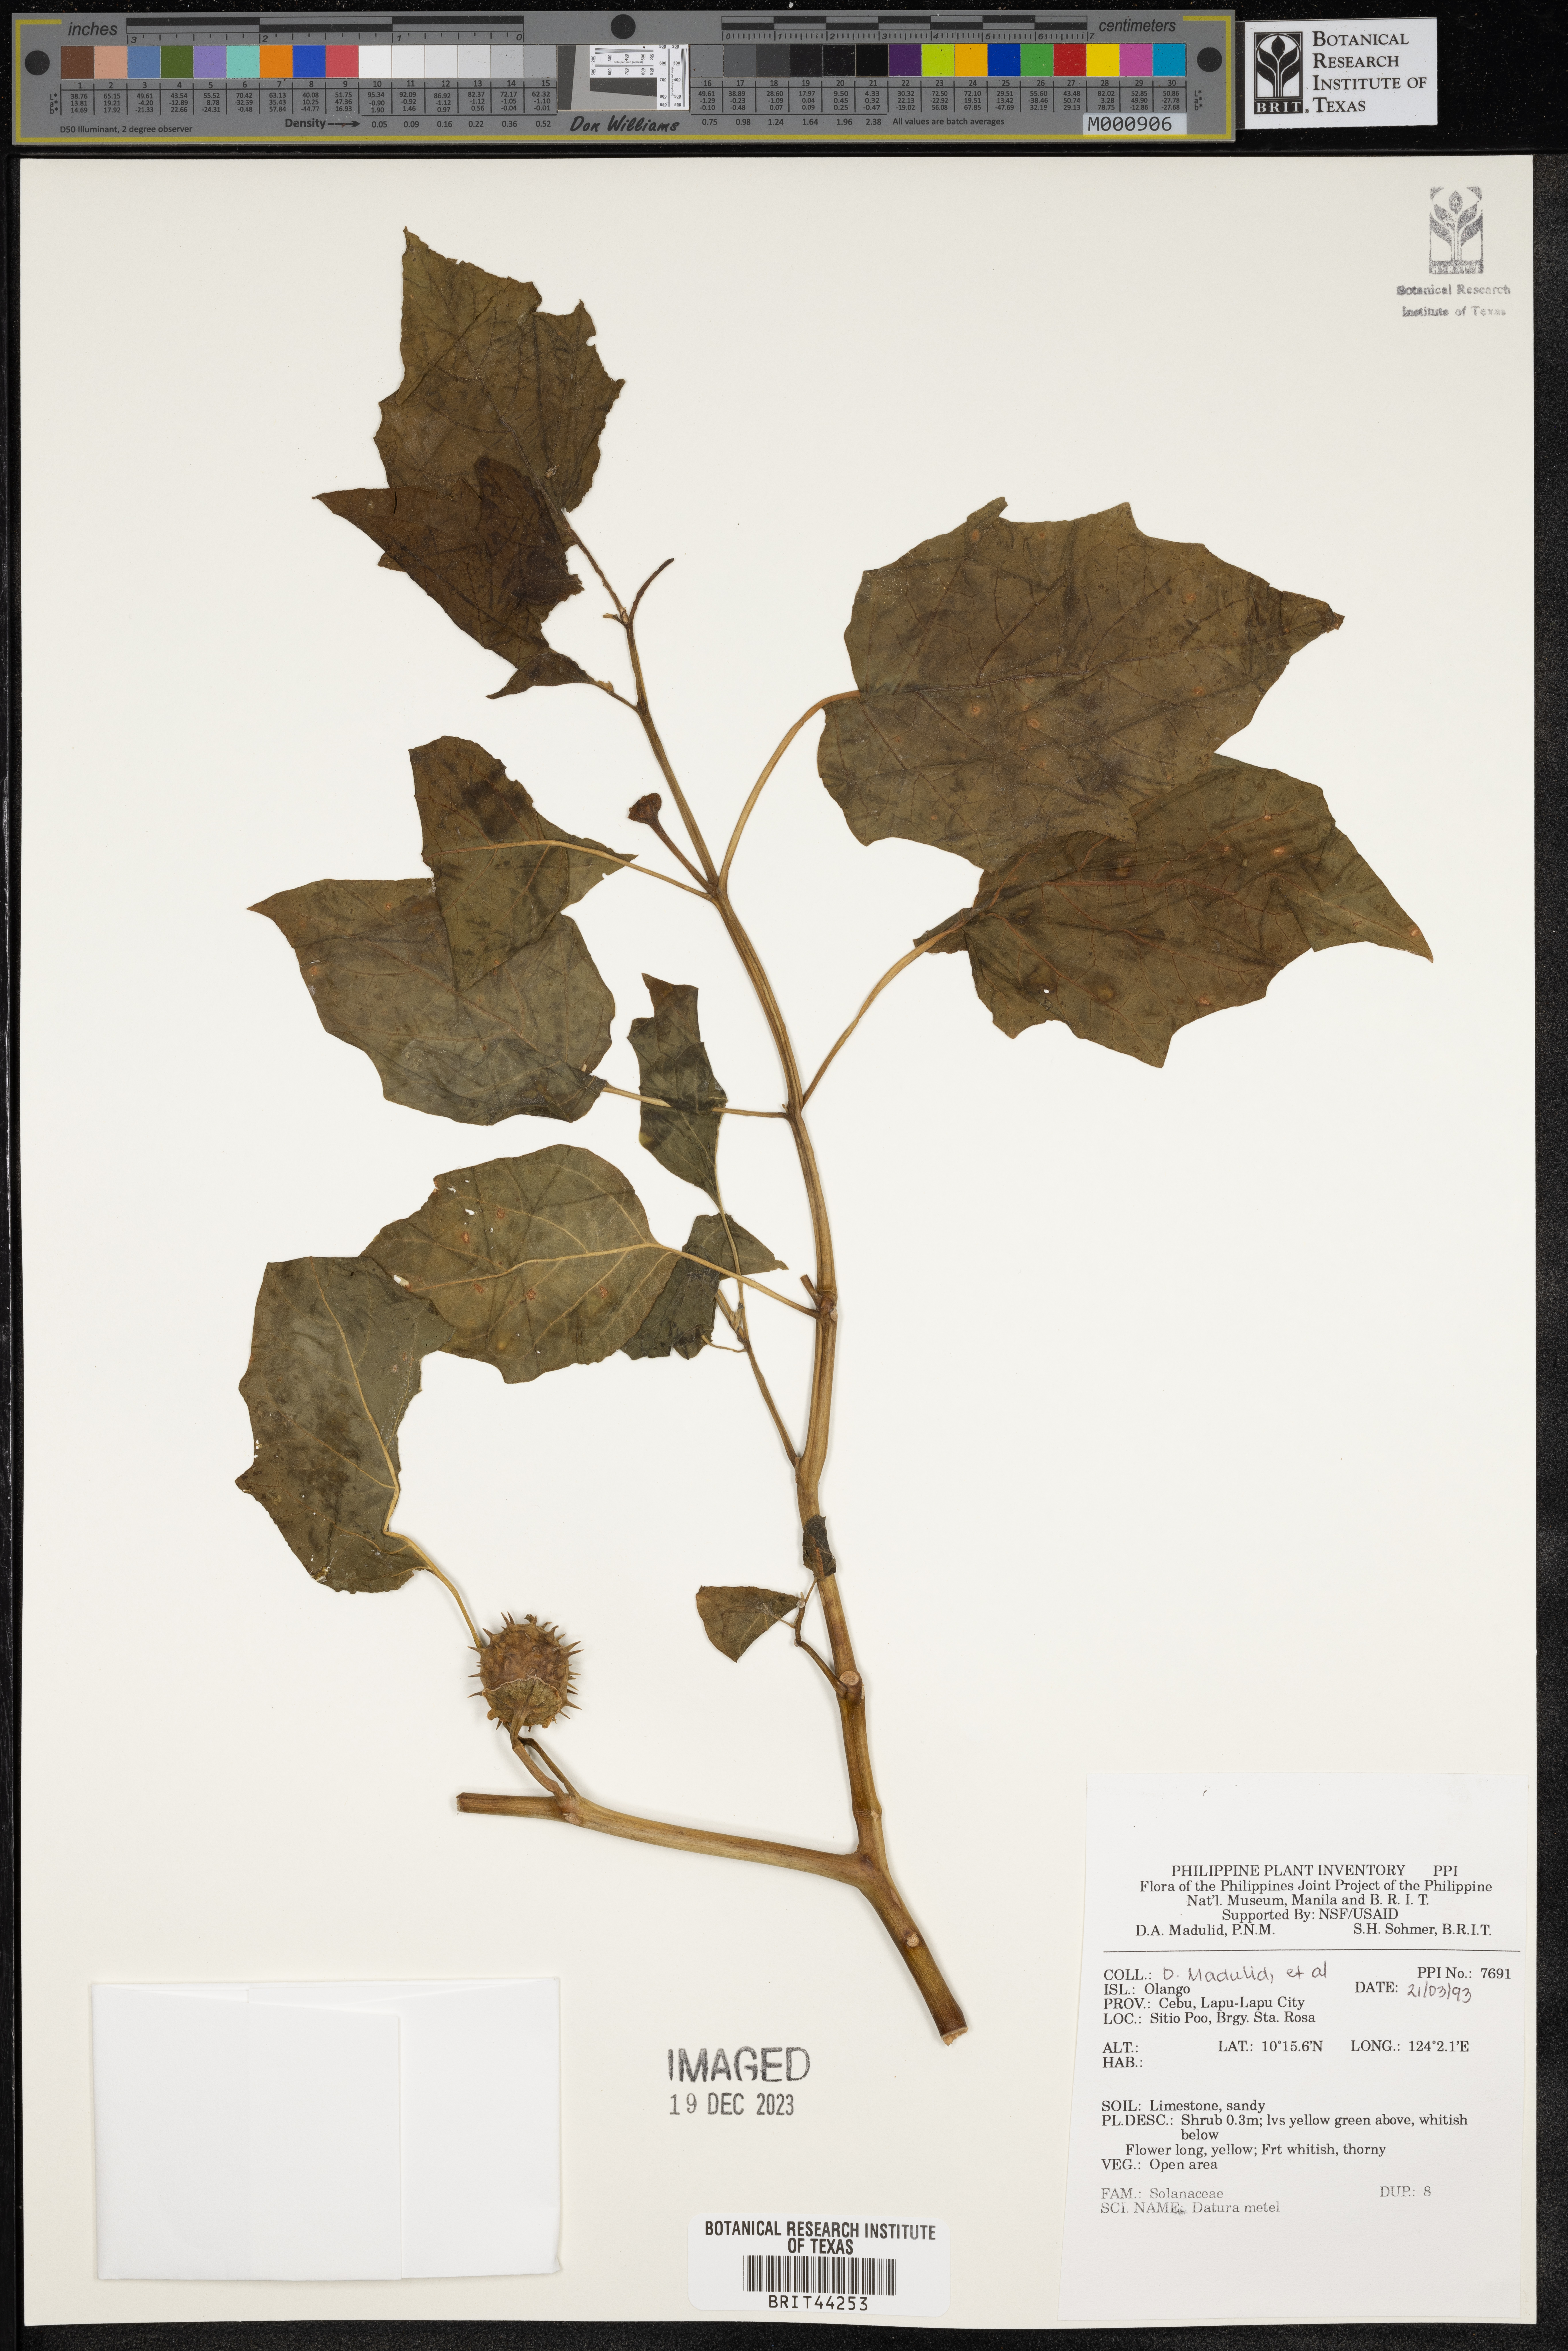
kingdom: Plantae
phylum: Tracheophyta
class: Magnoliopsida
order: Solanales
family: Solanaceae
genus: Datura
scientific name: Datura metel
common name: Jimsonweed
